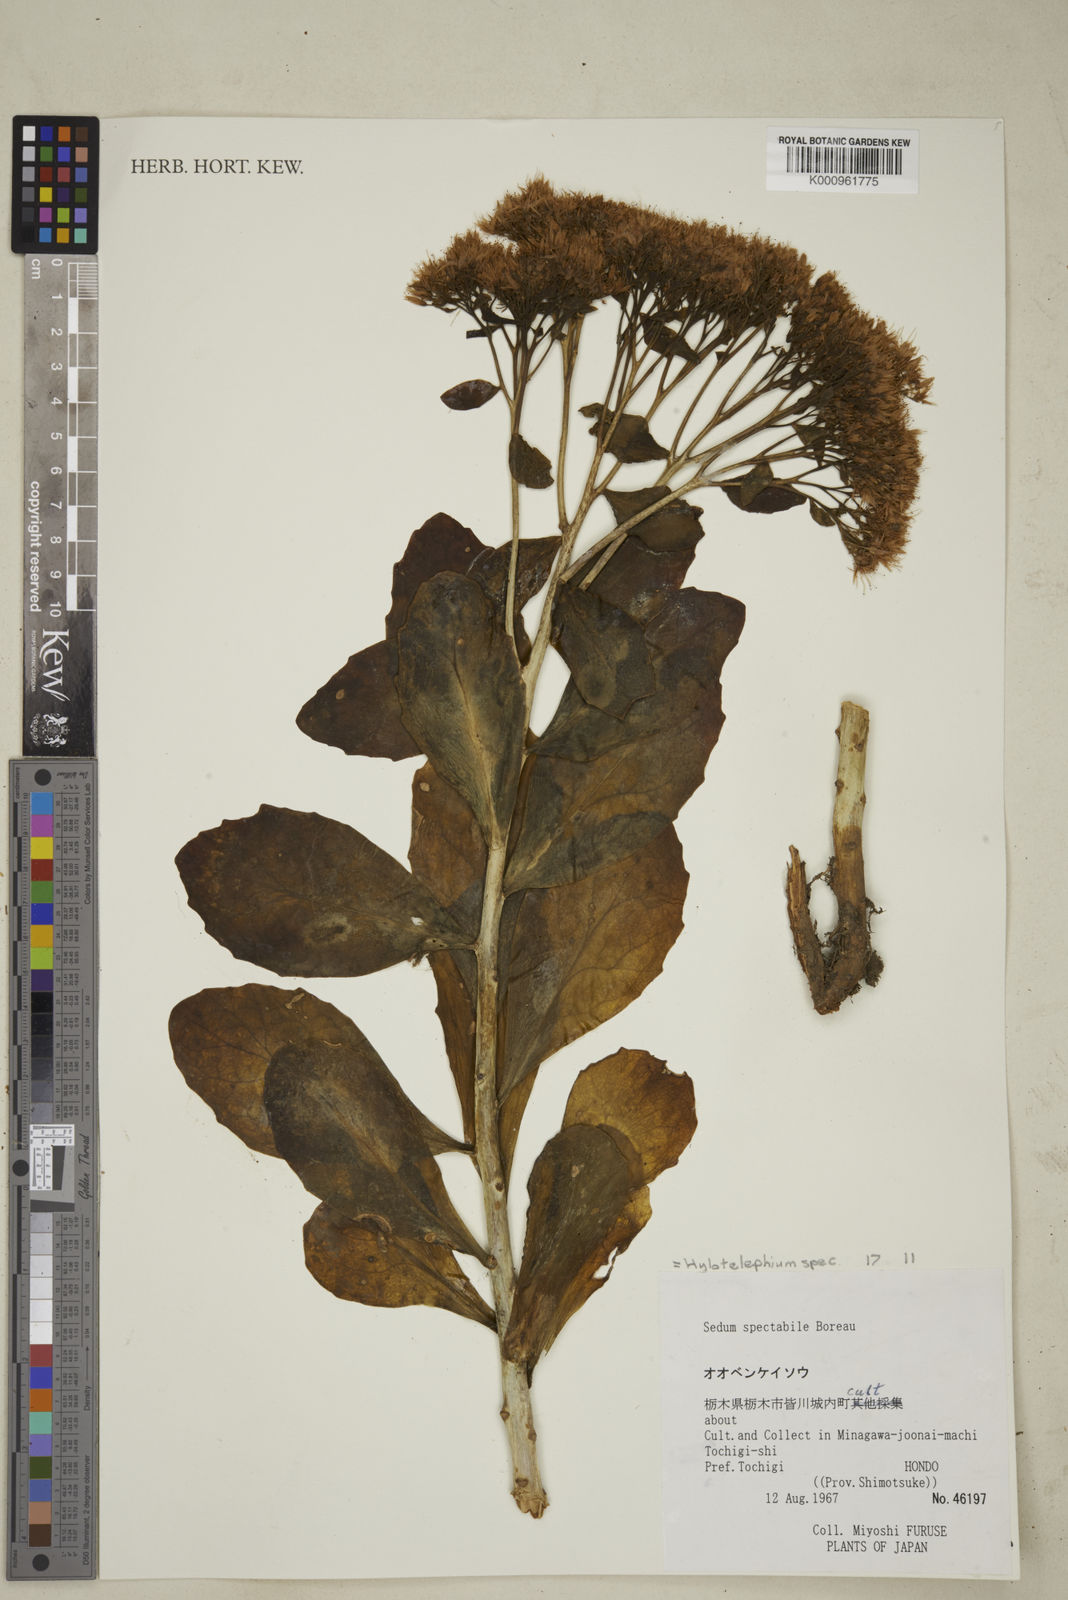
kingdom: Plantae
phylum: Tracheophyta
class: Magnoliopsida
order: Saxifragales
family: Crassulaceae
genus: Hylotelephium
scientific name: Hylotelephium spectabile
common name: Showy stonecrop
